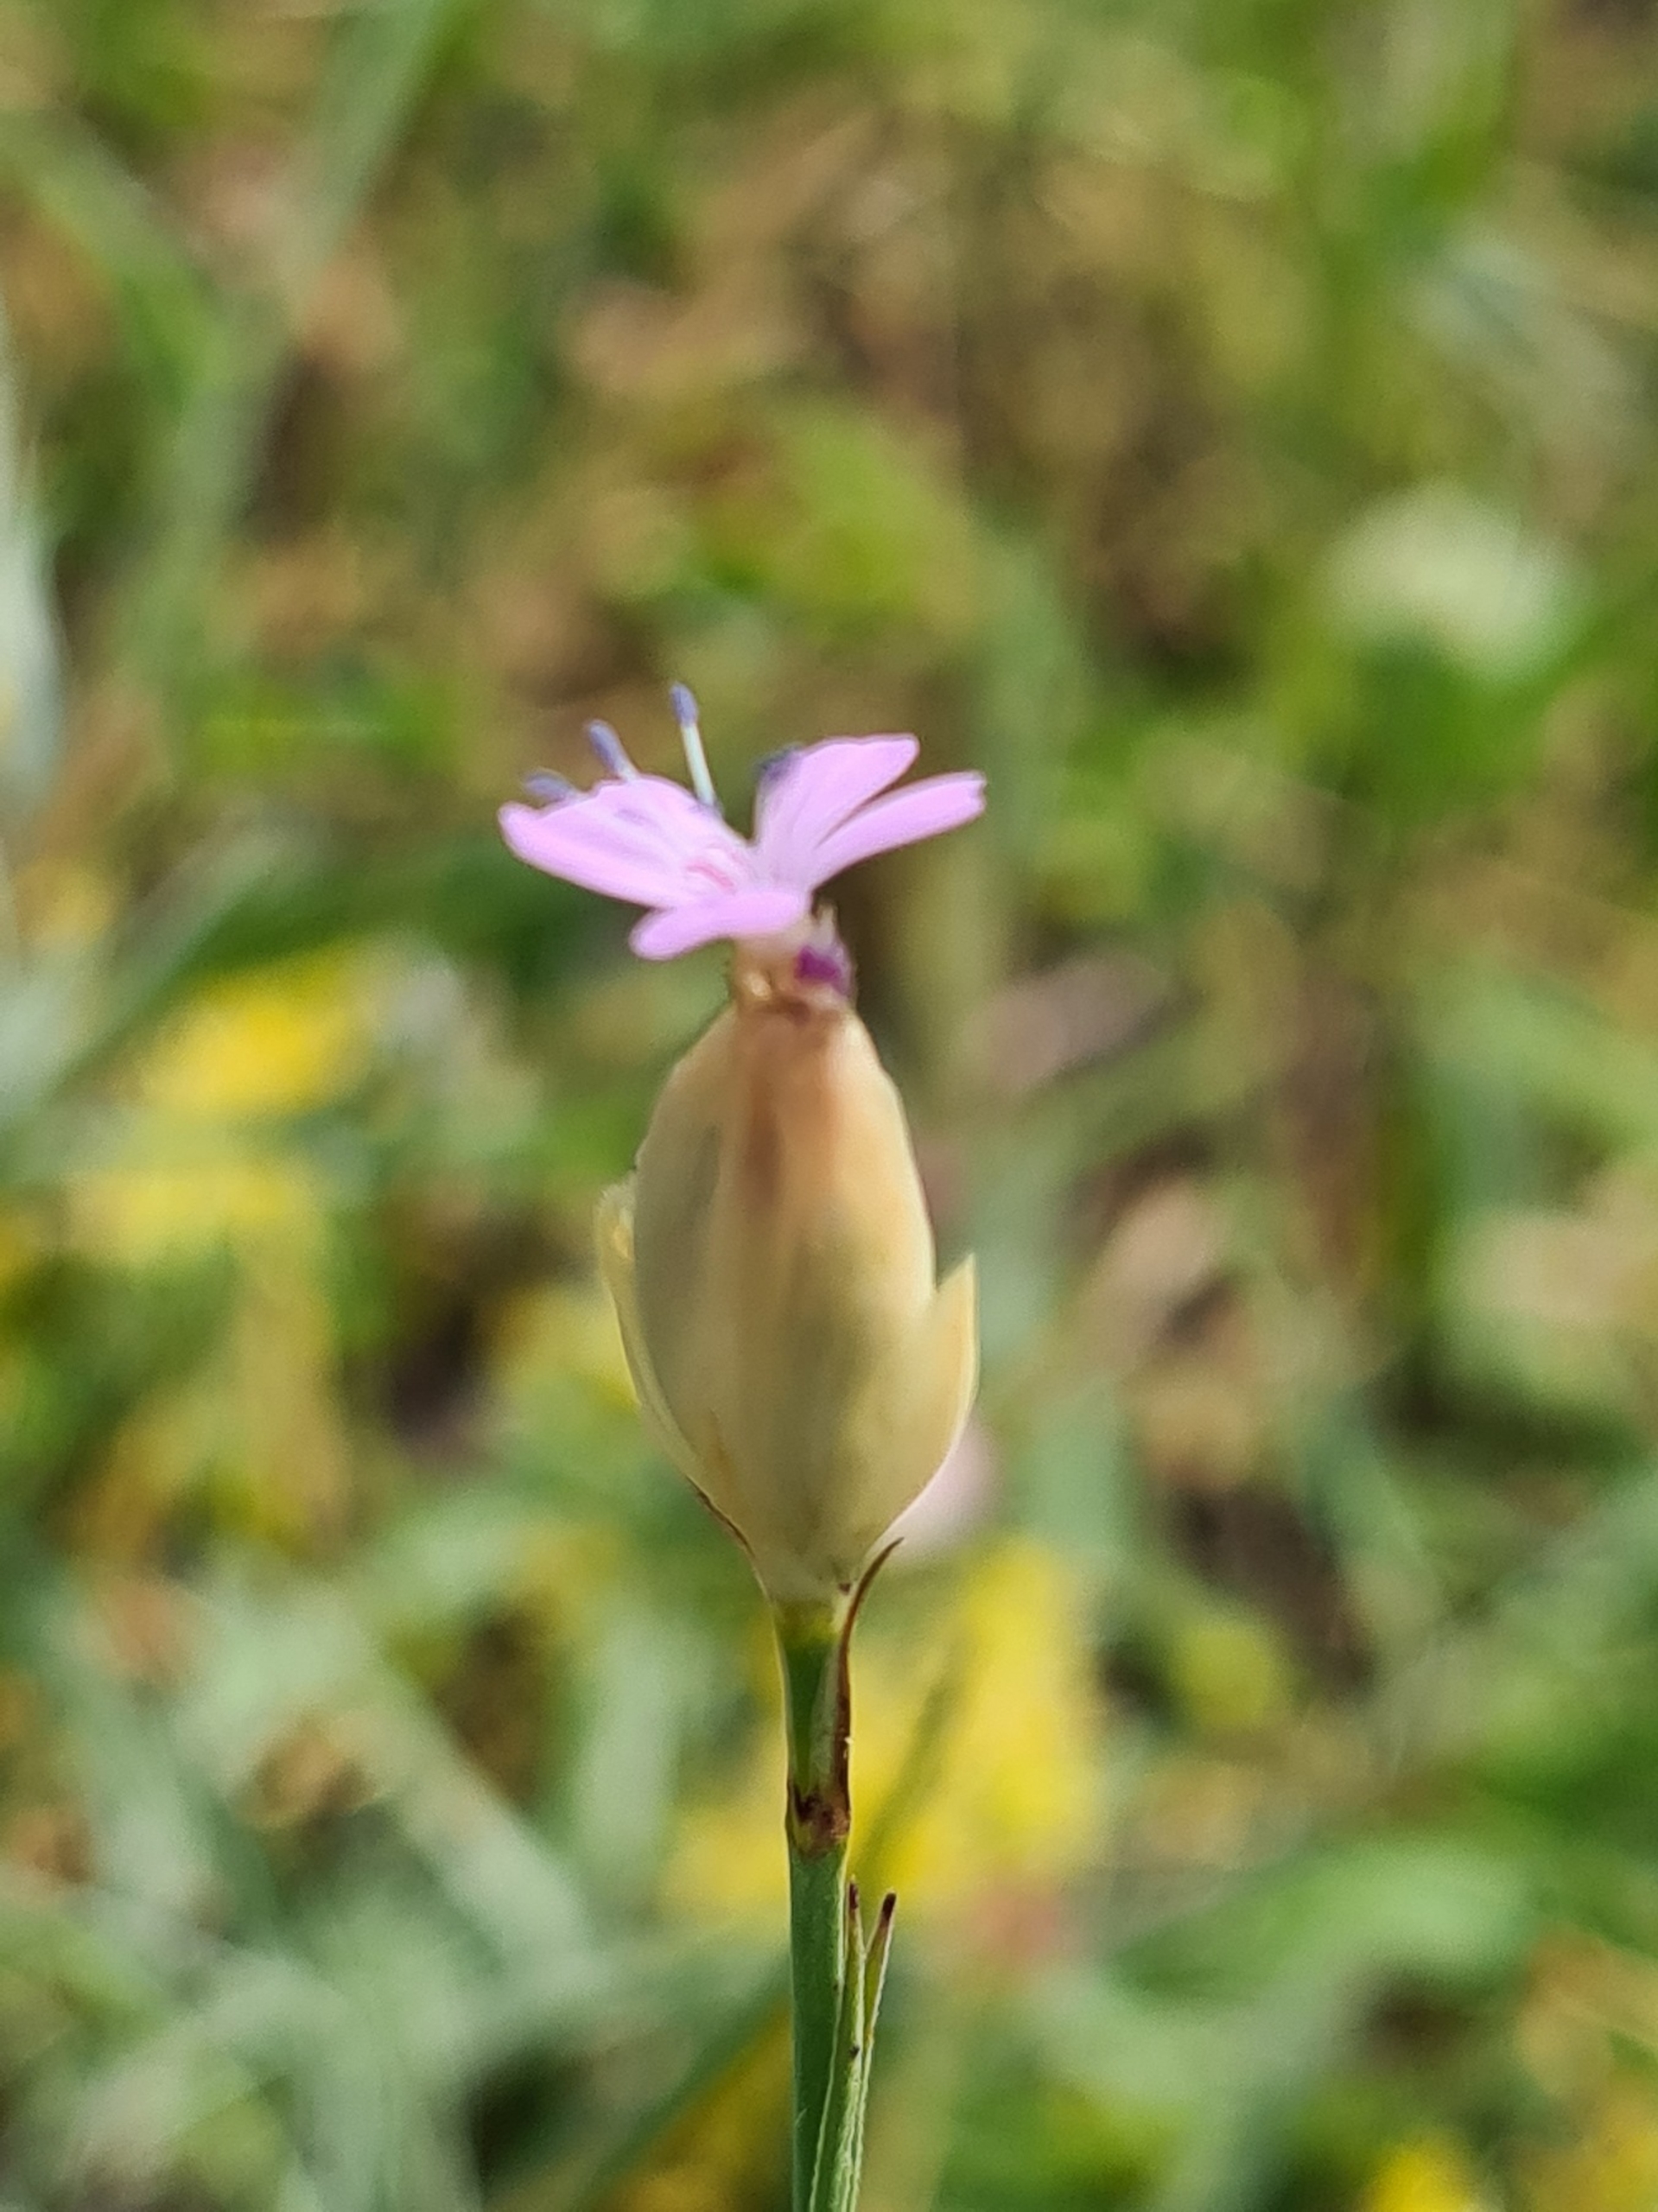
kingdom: Plantae
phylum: Tracheophyta
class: Magnoliopsida
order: Caryophyllales
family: Caryophyllaceae
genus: Petrorhagia
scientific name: Petrorhagia prolifera
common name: Knopnellike
